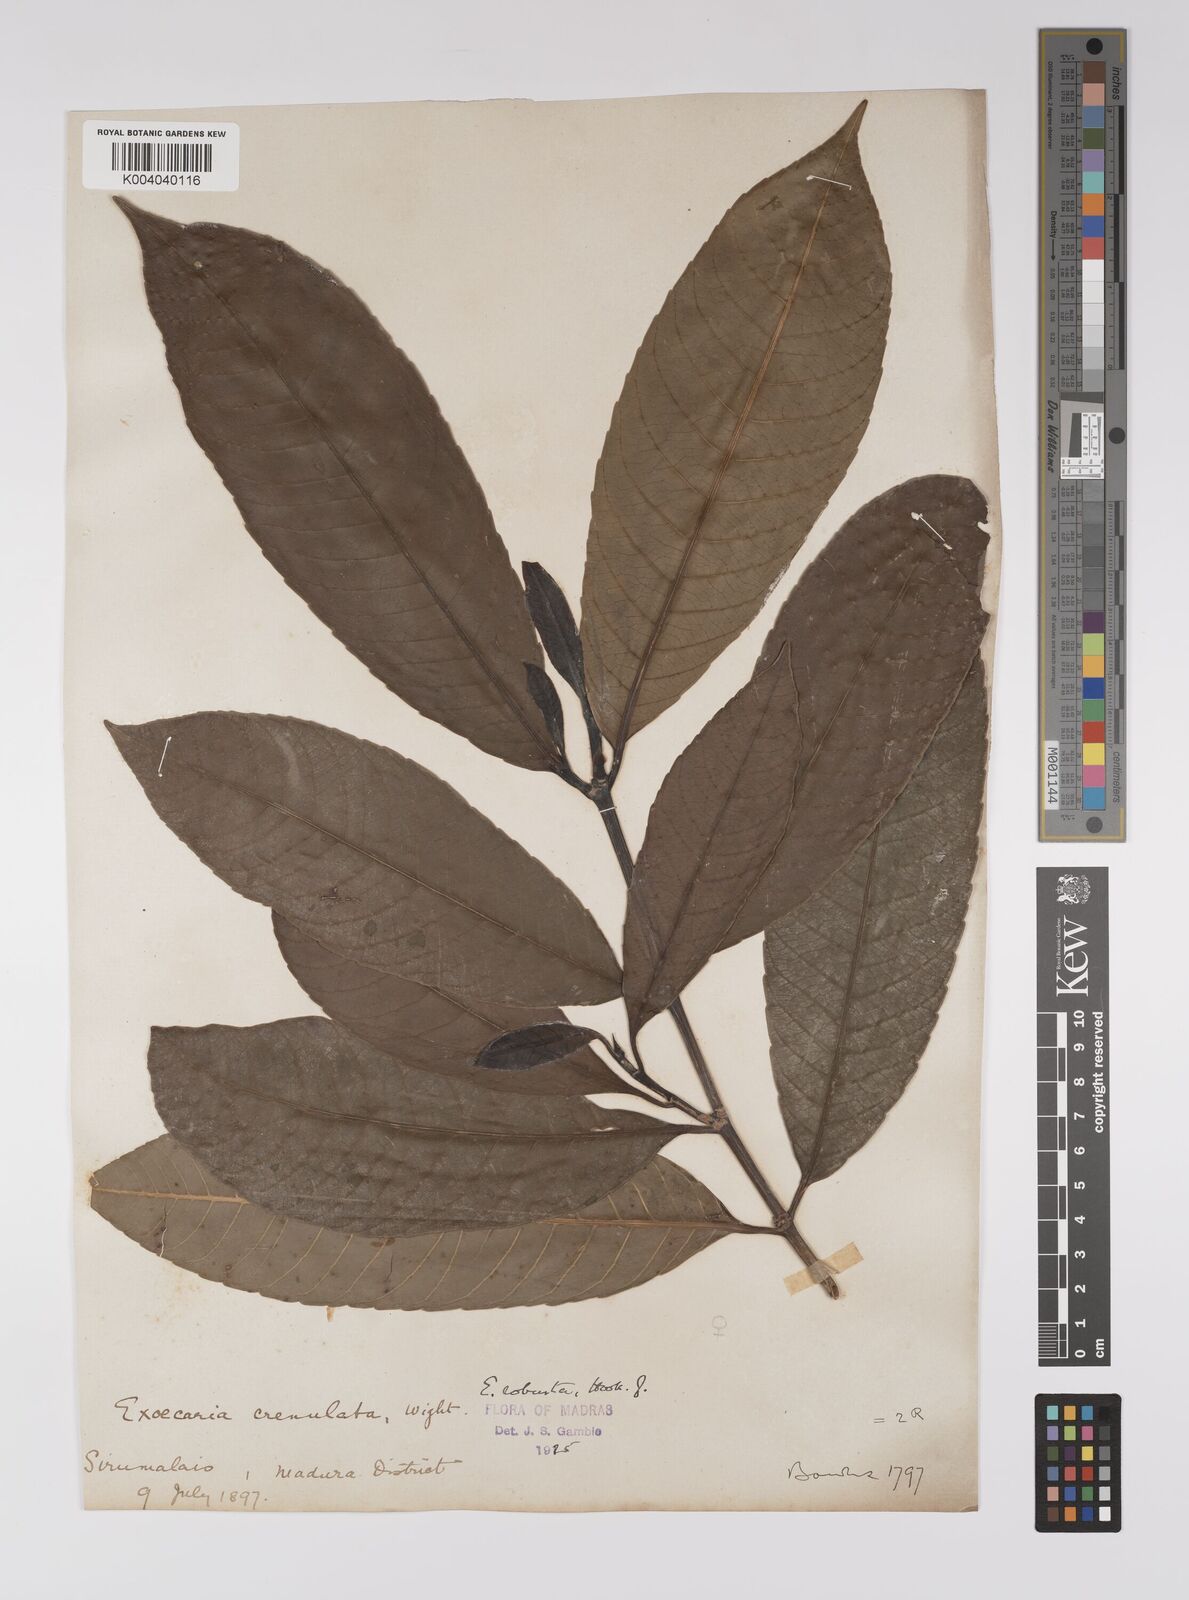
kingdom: Plantae
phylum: Tracheophyta
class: Magnoliopsida
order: Malpighiales
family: Euphorbiaceae
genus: Excoecaria
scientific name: Excoecaria oppositifolia
